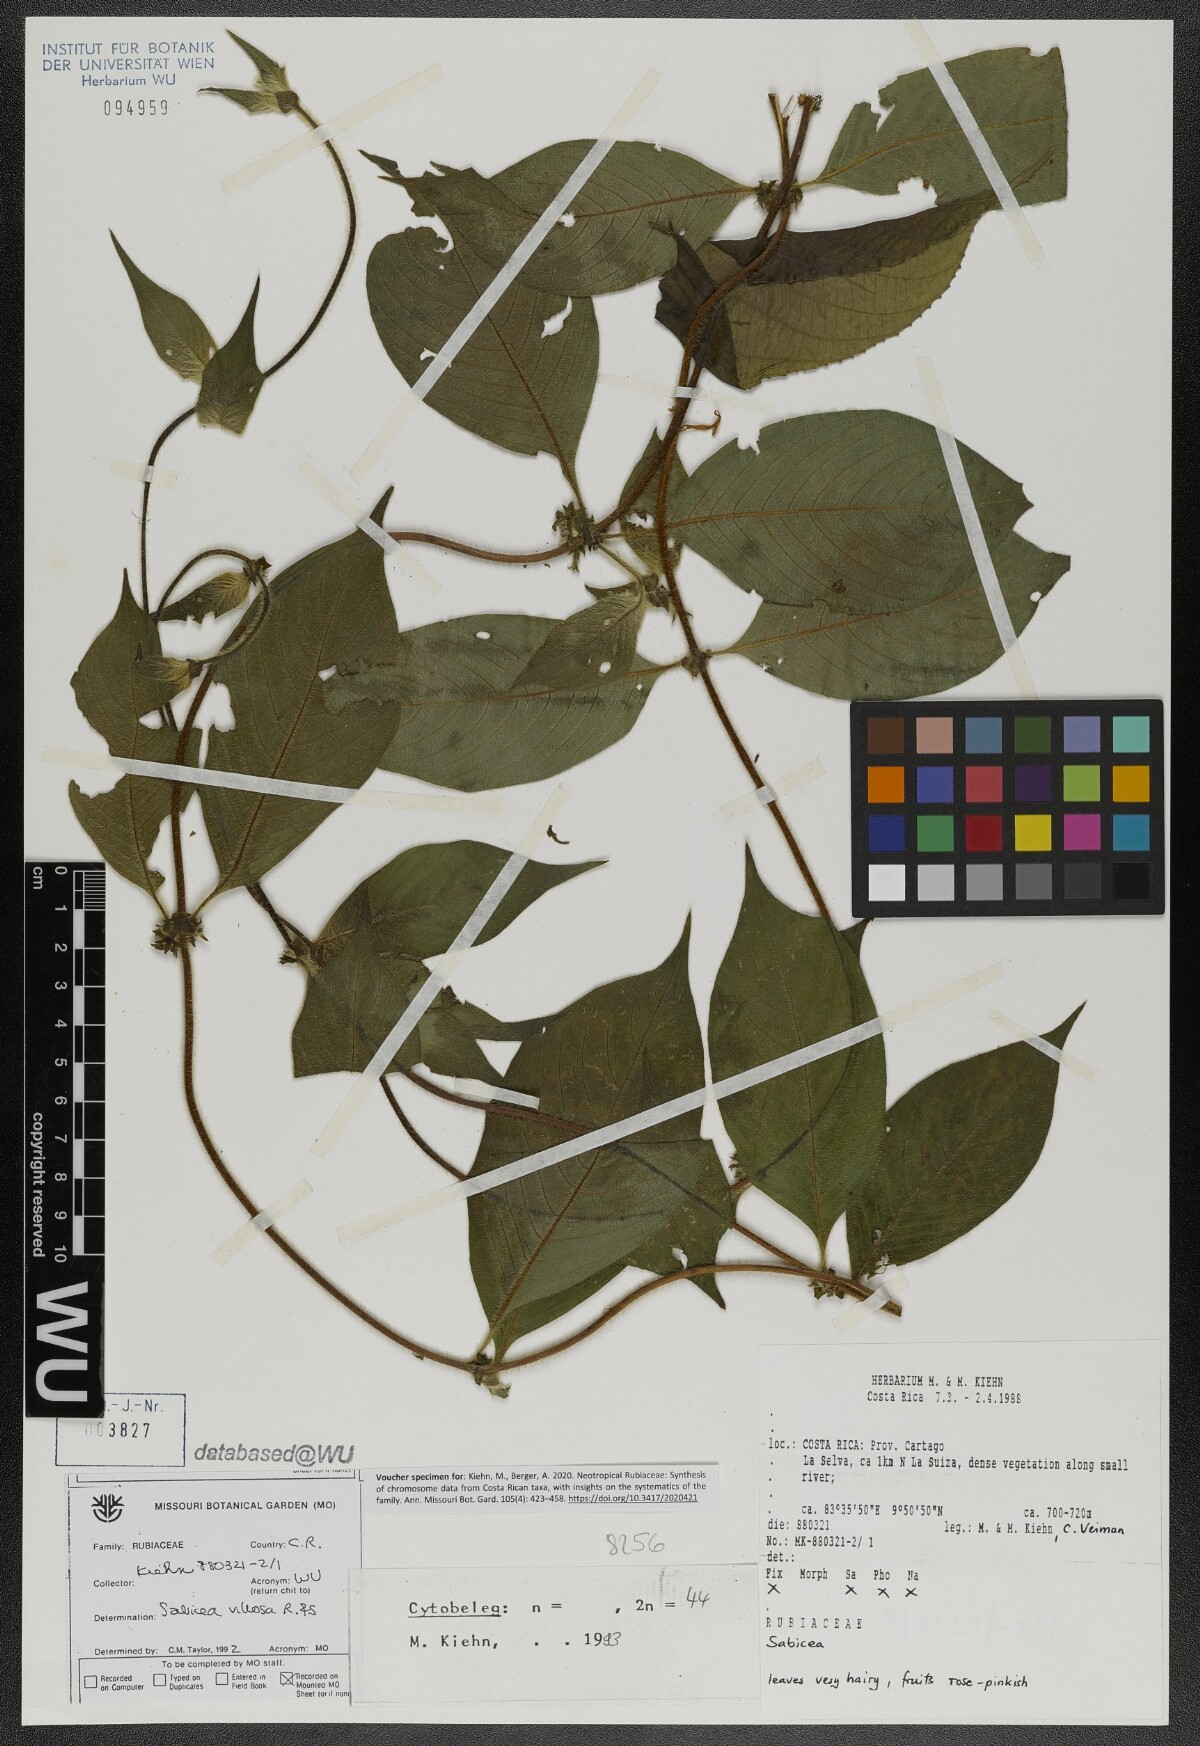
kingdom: Plantae
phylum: Tracheophyta
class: Magnoliopsida
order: Gentianales
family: Rubiaceae
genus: Sabicea
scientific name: Sabicea villosa
